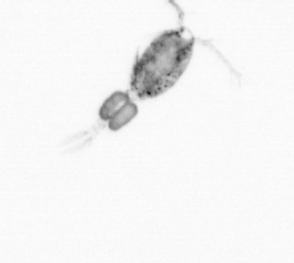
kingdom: Animalia
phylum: Arthropoda
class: Copepoda
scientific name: Copepoda
